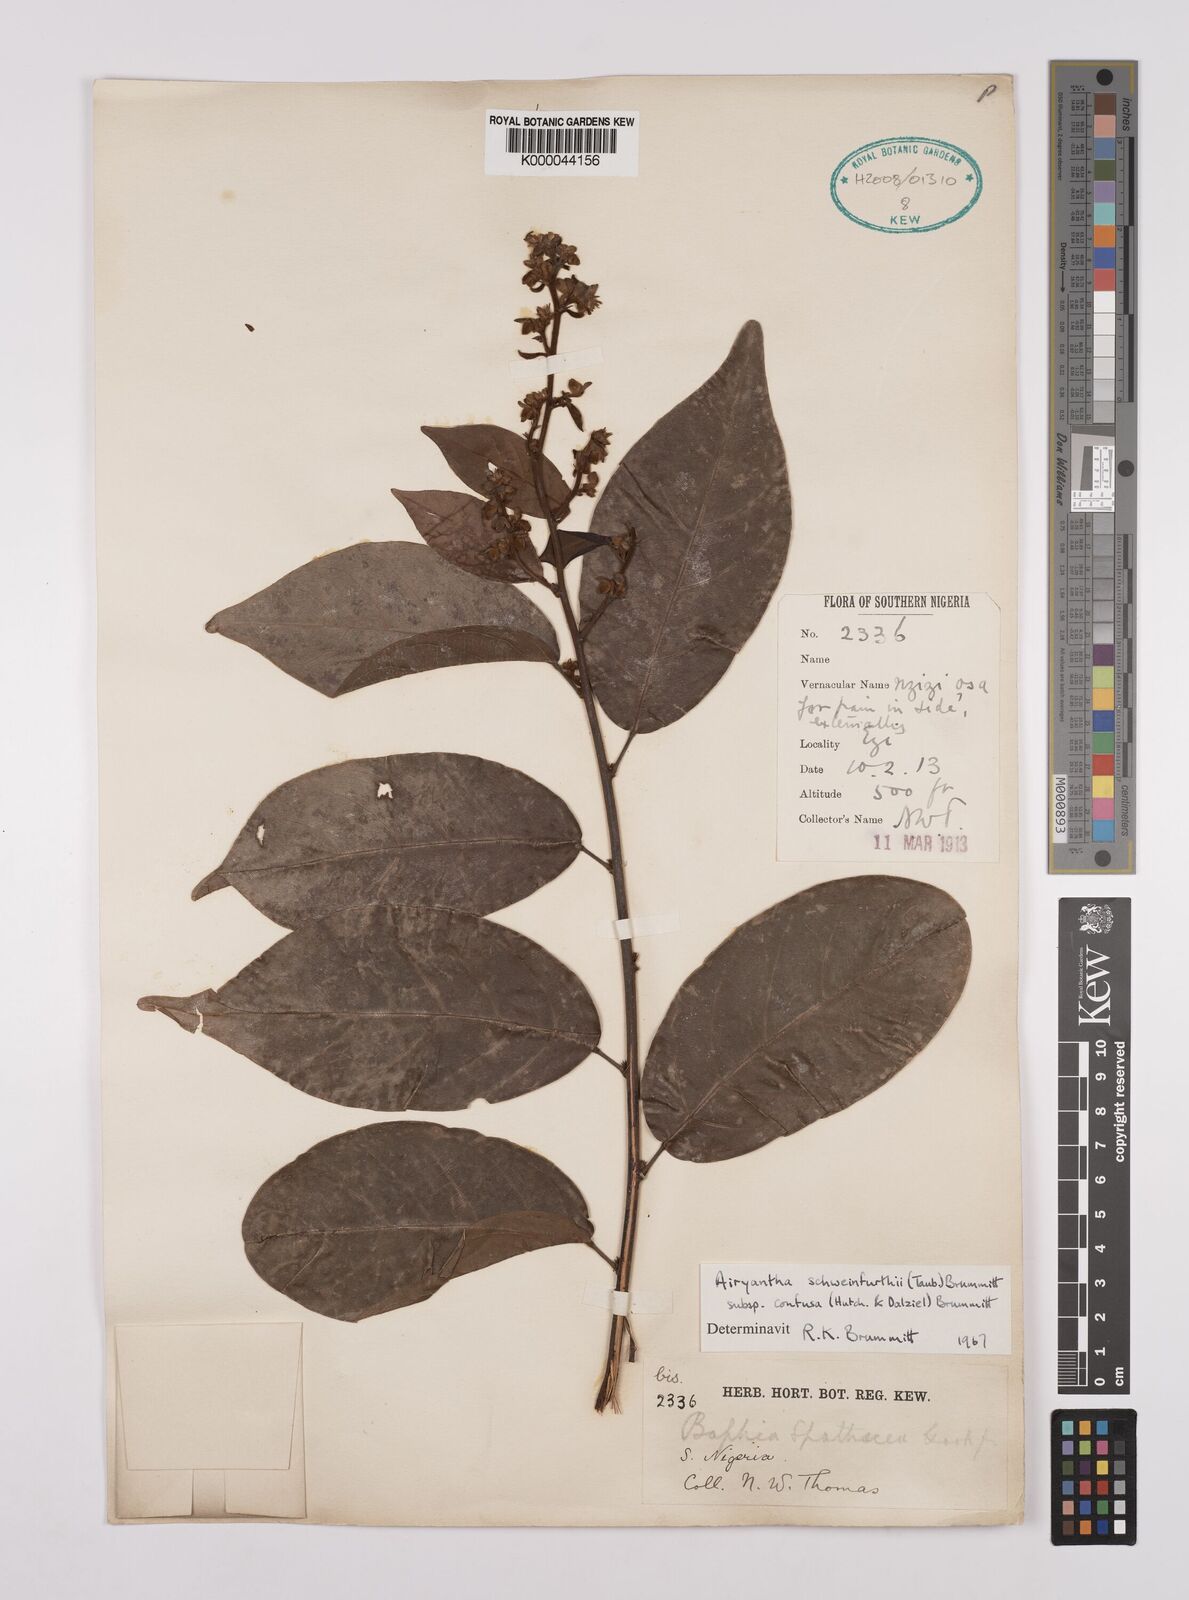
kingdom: Plantae
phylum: Tracheophyta
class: Magnoliopsida
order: Fabales
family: Fabaceae
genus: Airyantha
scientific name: Airyantha schweinfurthii
